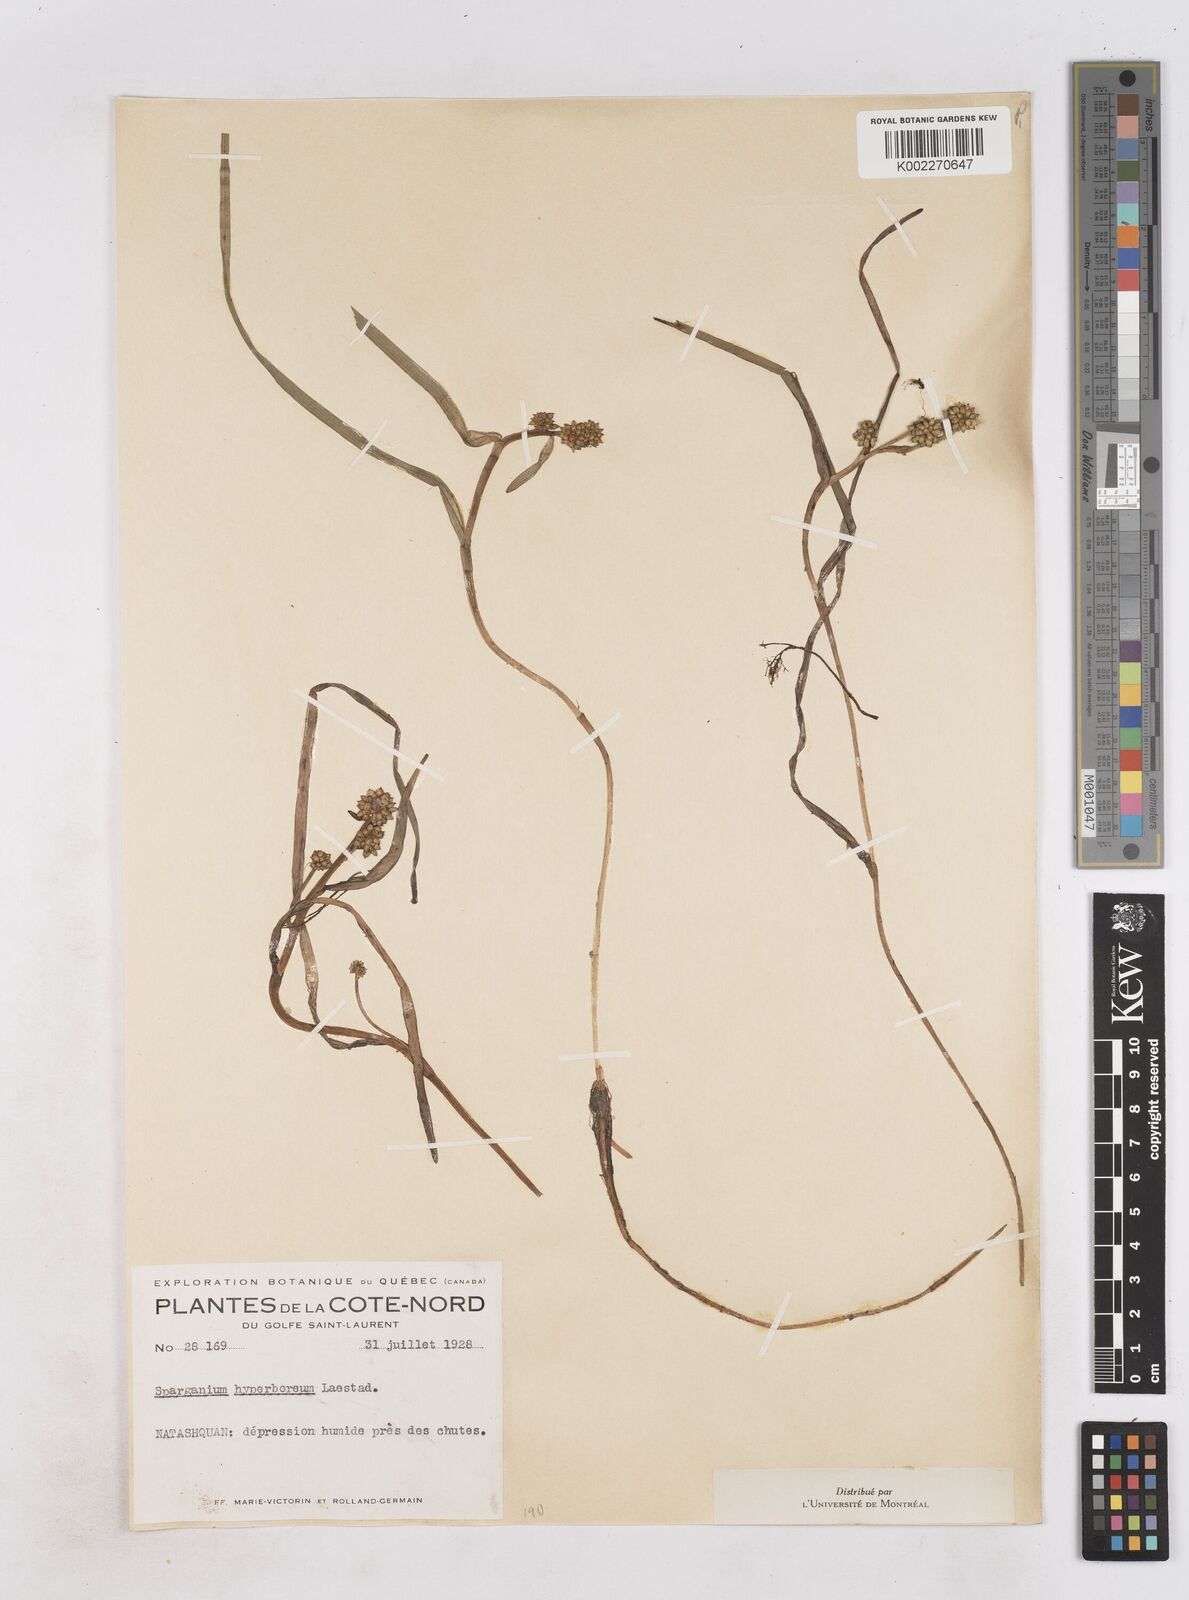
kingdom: Plantae
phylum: Tracheophyta
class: Liliopsida
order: Poales
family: Typhaceae
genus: Sparganium
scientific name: Sparganium hyperboreum
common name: Arctic burreed
